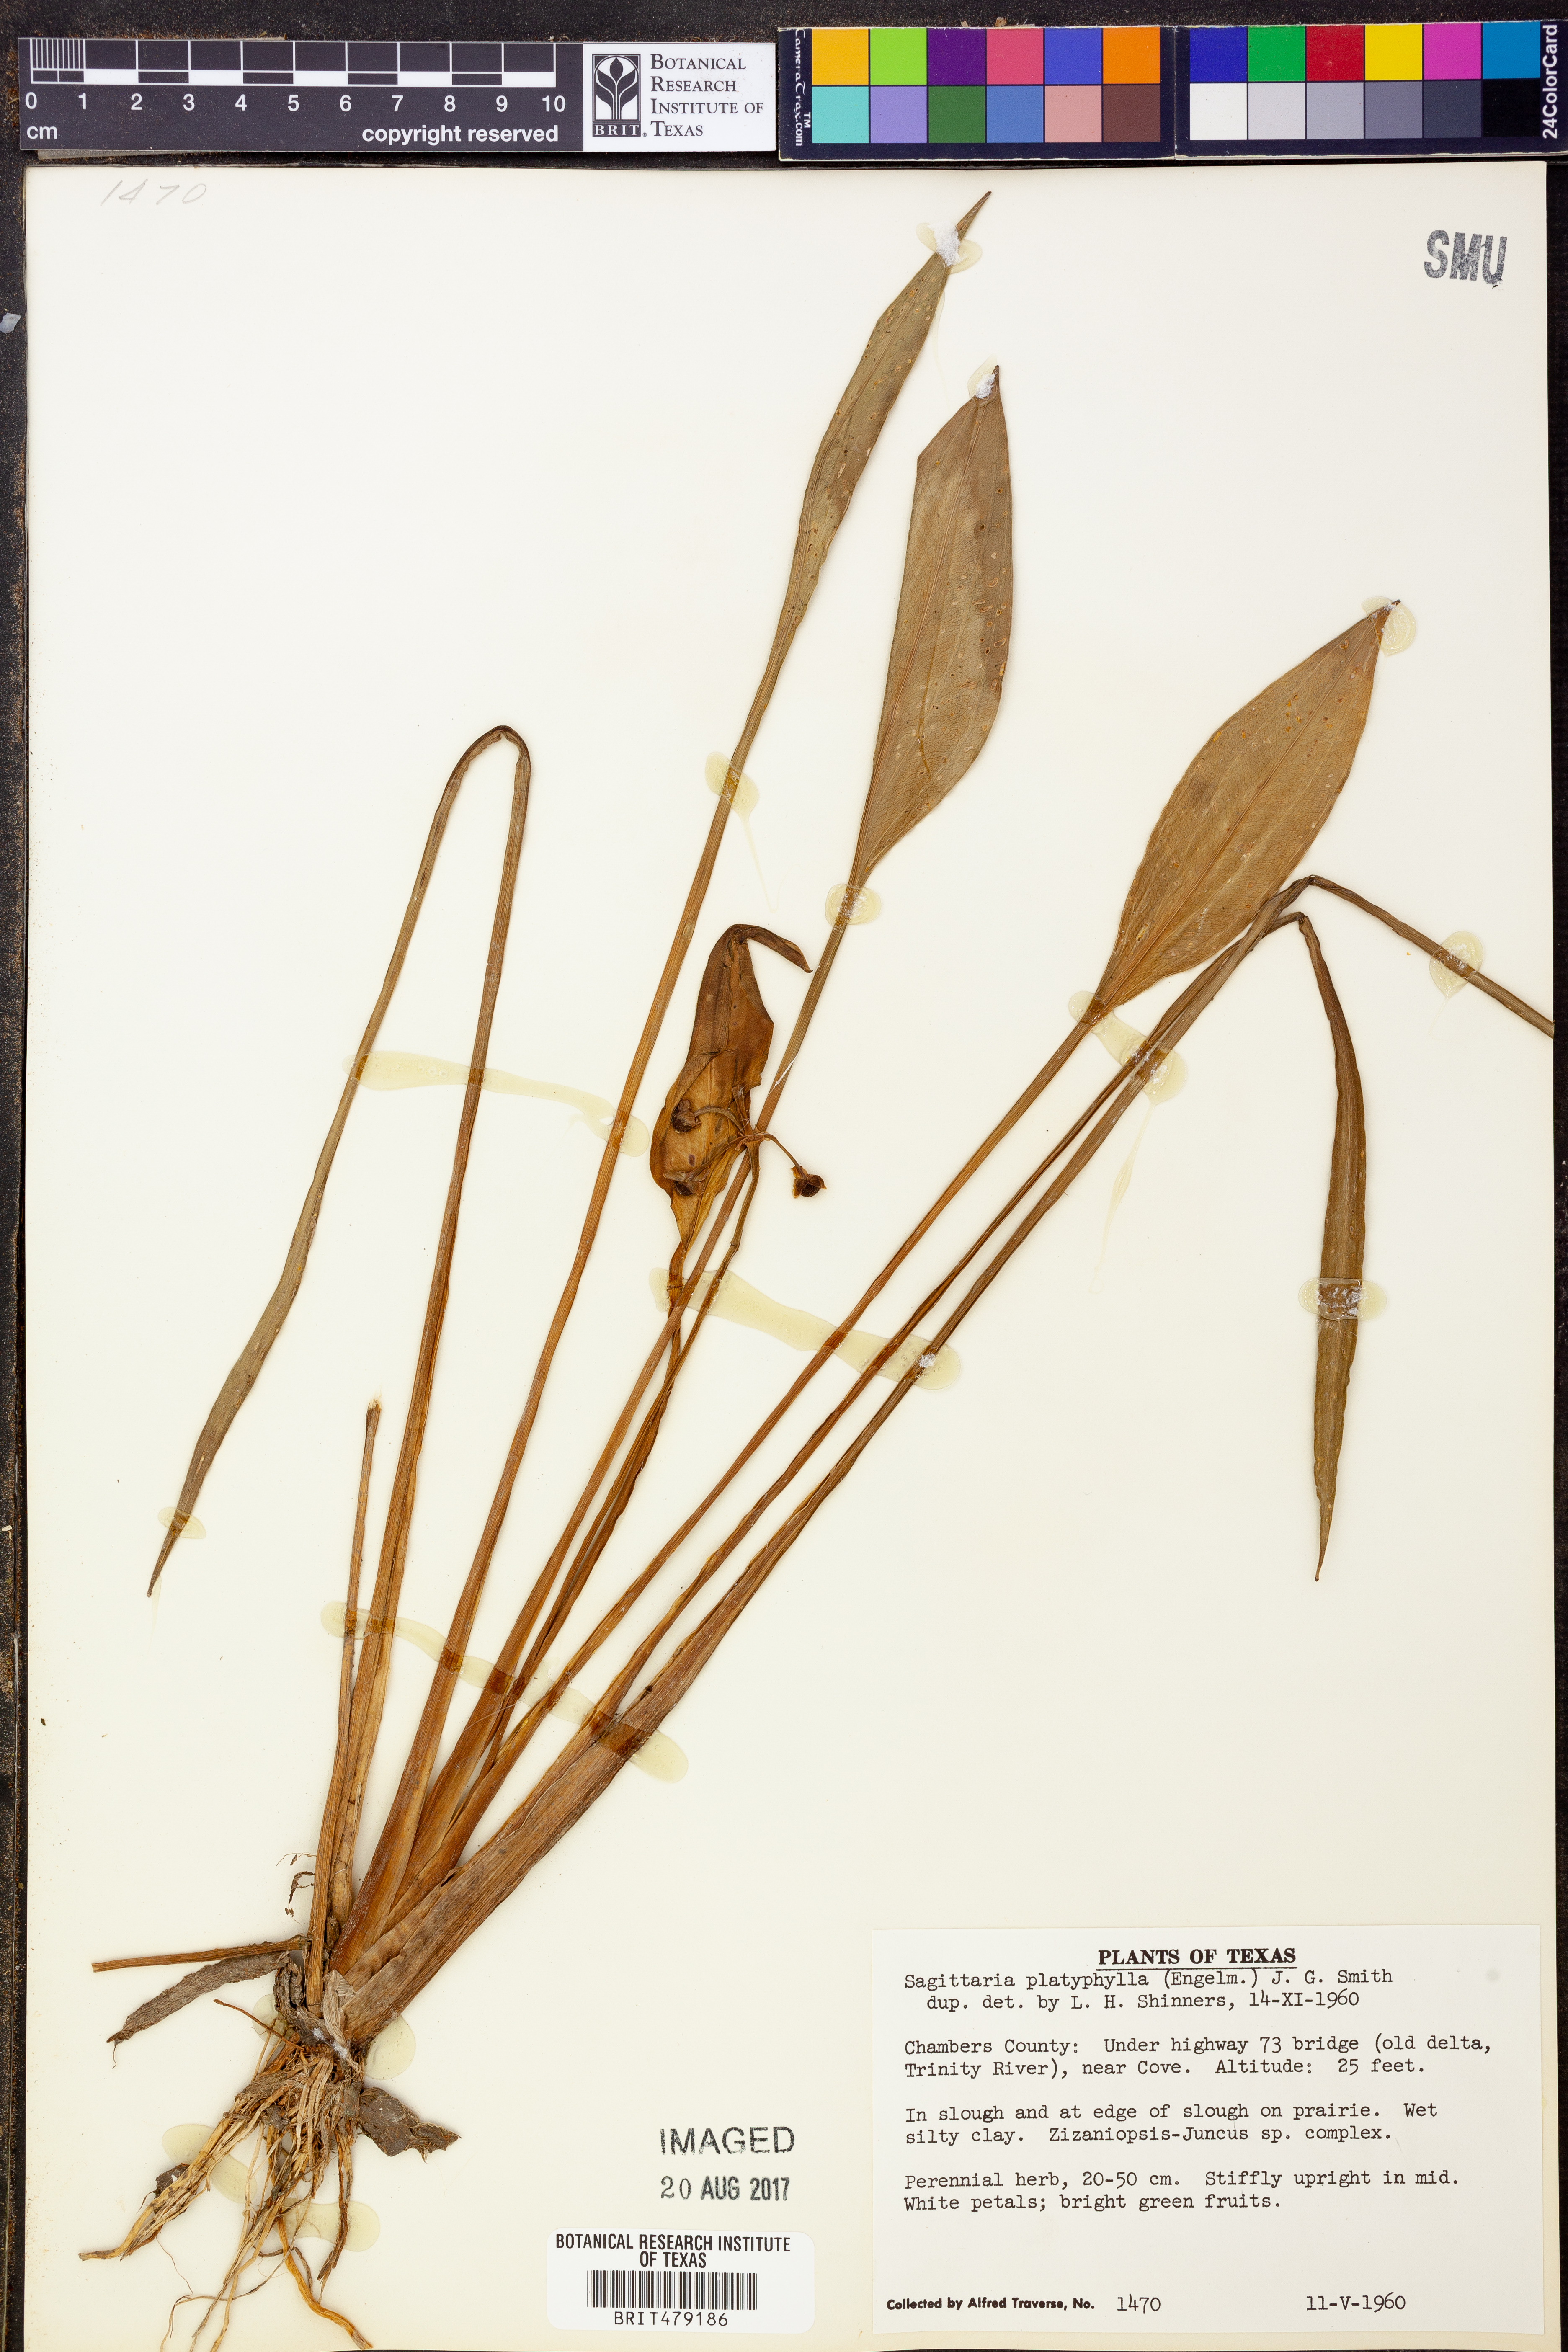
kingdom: Plantae
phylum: Tracheophyta
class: Liliopsida
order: Alismatales
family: Alismataceae
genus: Sagittaria
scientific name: Sagittaria platyphylla
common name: Broad-leaf arrowhead
